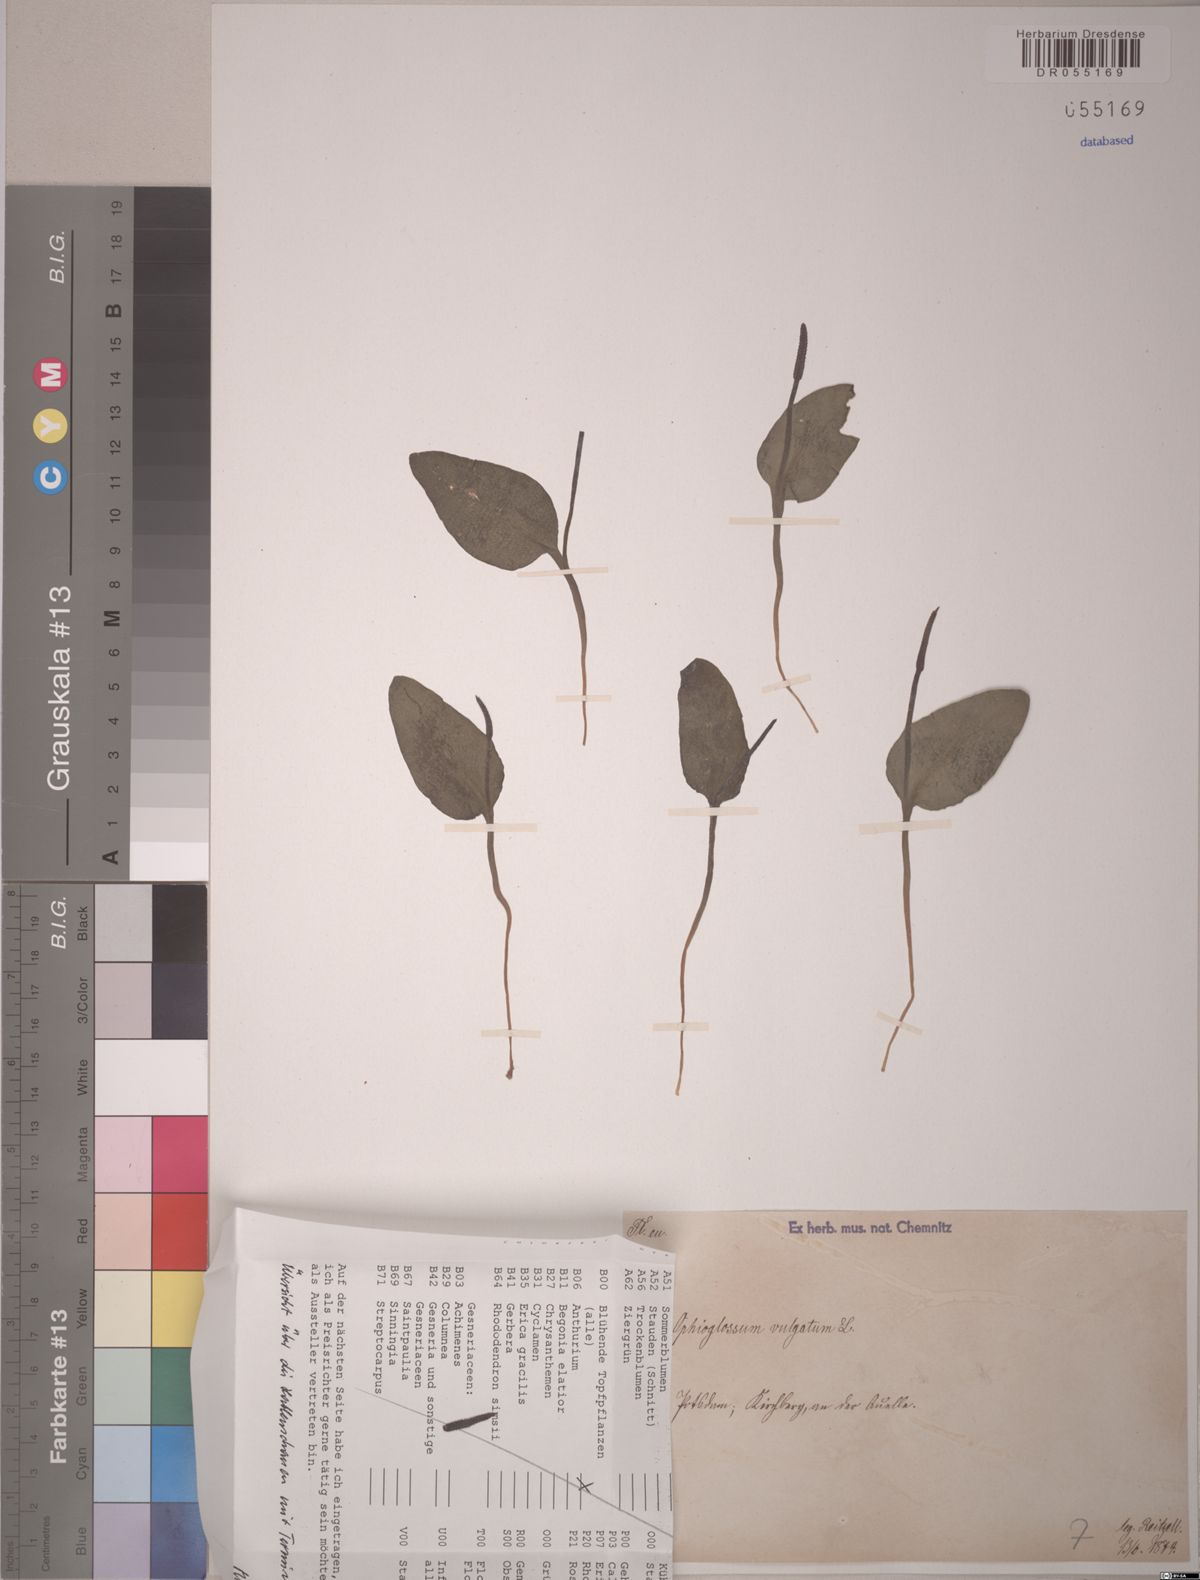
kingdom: Plantae
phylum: Tracheophyta
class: Polypodiopsida
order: Ophioglossales
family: Ophioglossaceae
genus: Ophioglossum
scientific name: Ophioglossum vulgatum
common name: Adder's-tongue
